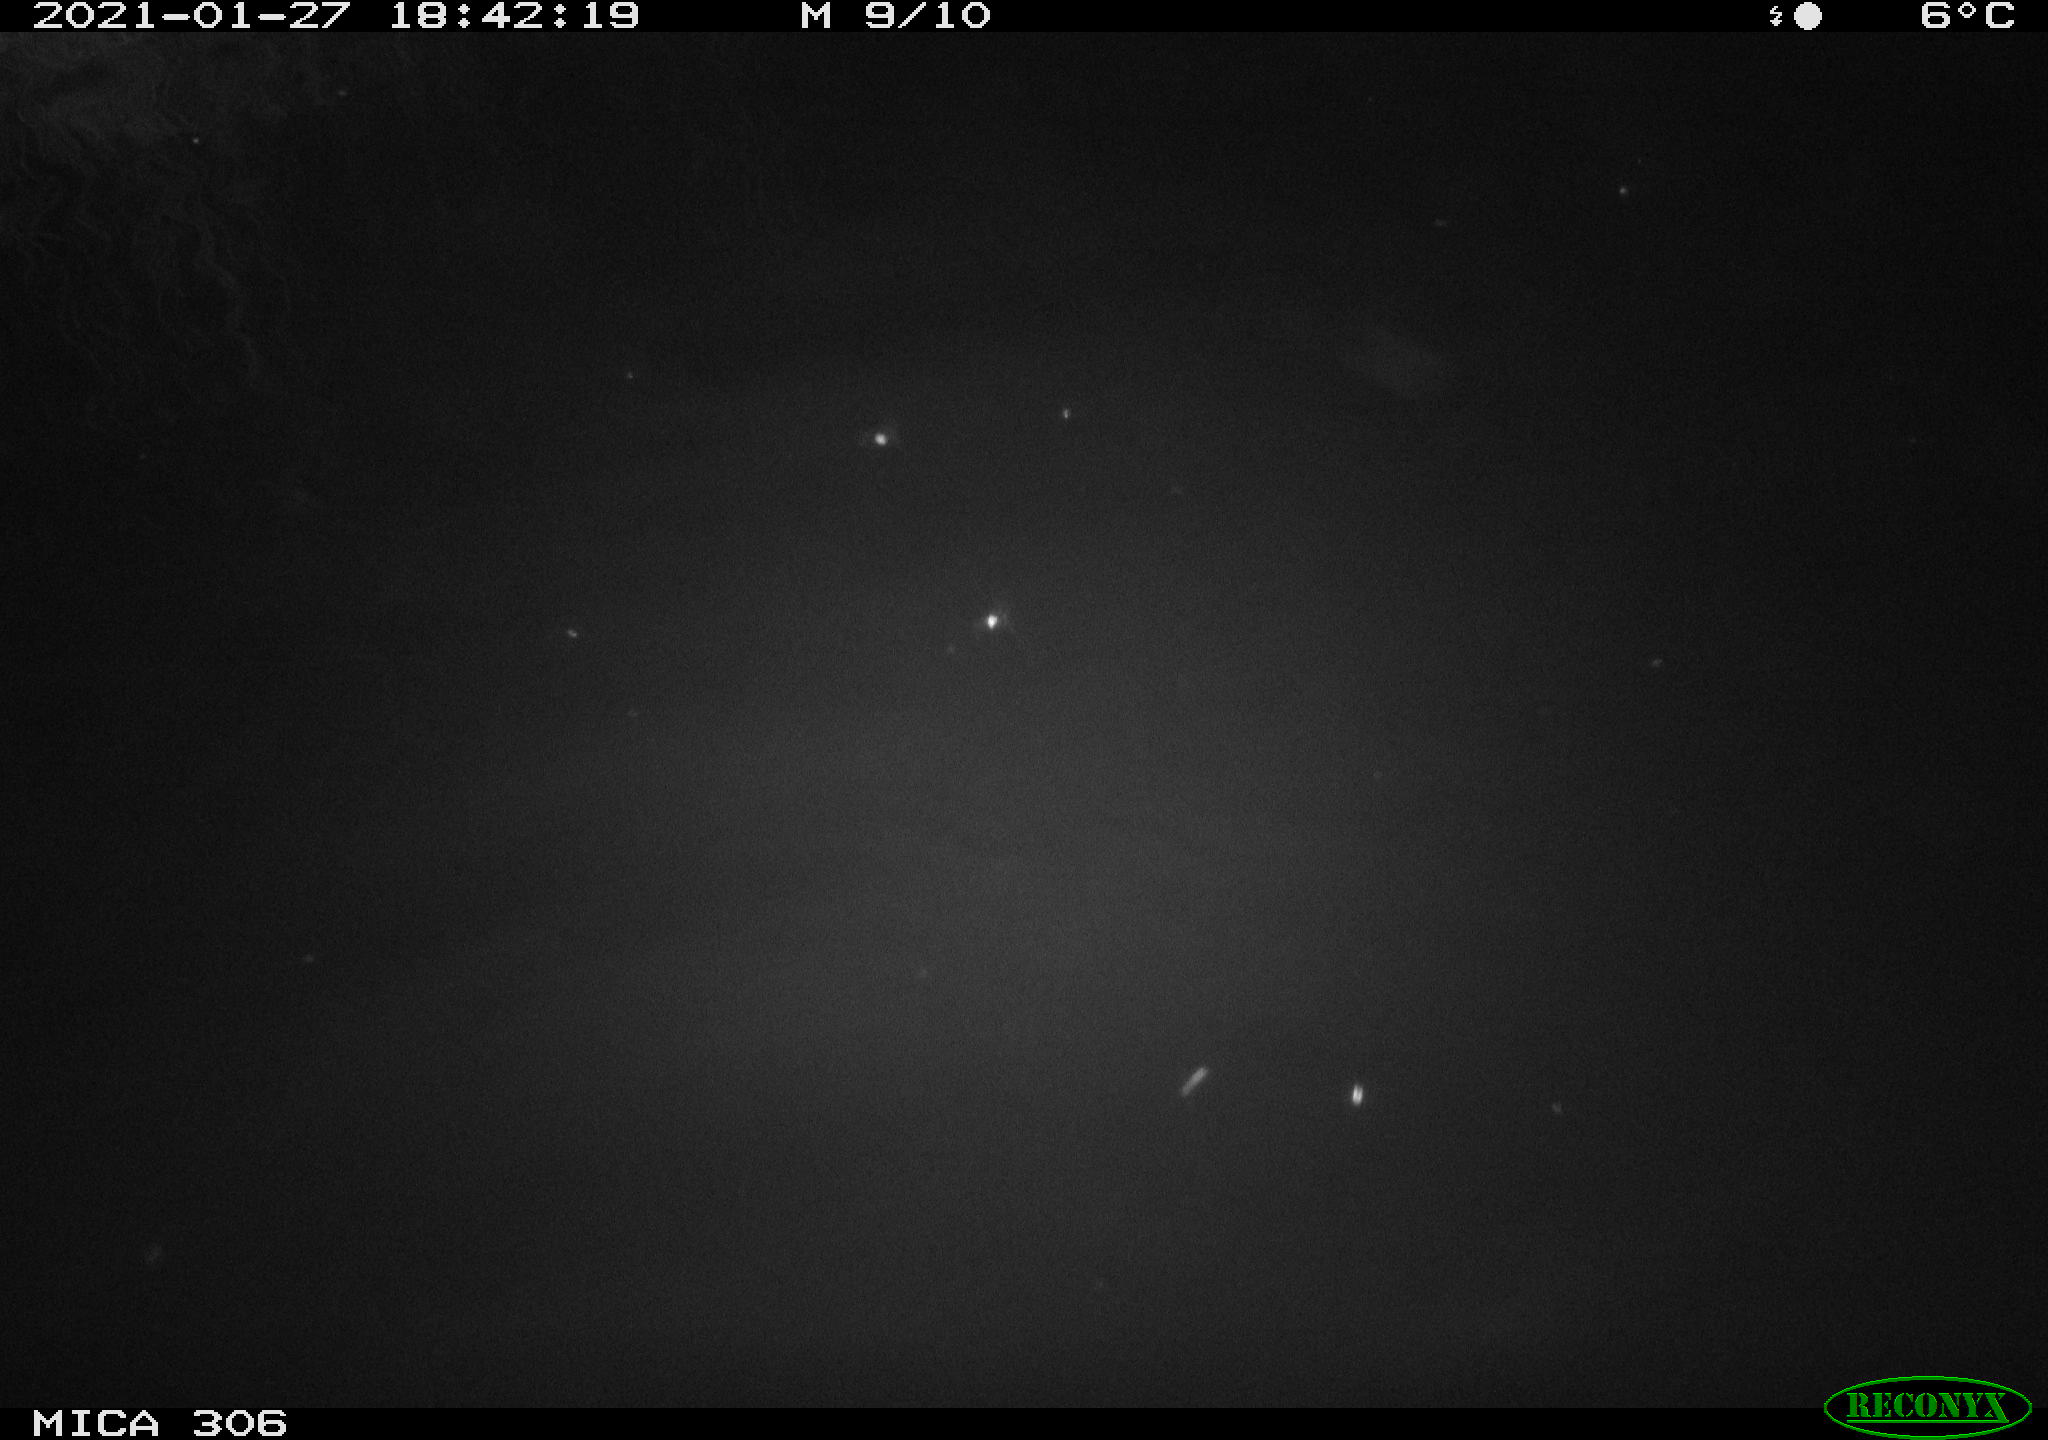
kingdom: Animalia
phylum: Chordata
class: Mammalia
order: Rodentia
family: Cricetidae
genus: Ondatra
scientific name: Ondatra zibethicus
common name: Muskrat
